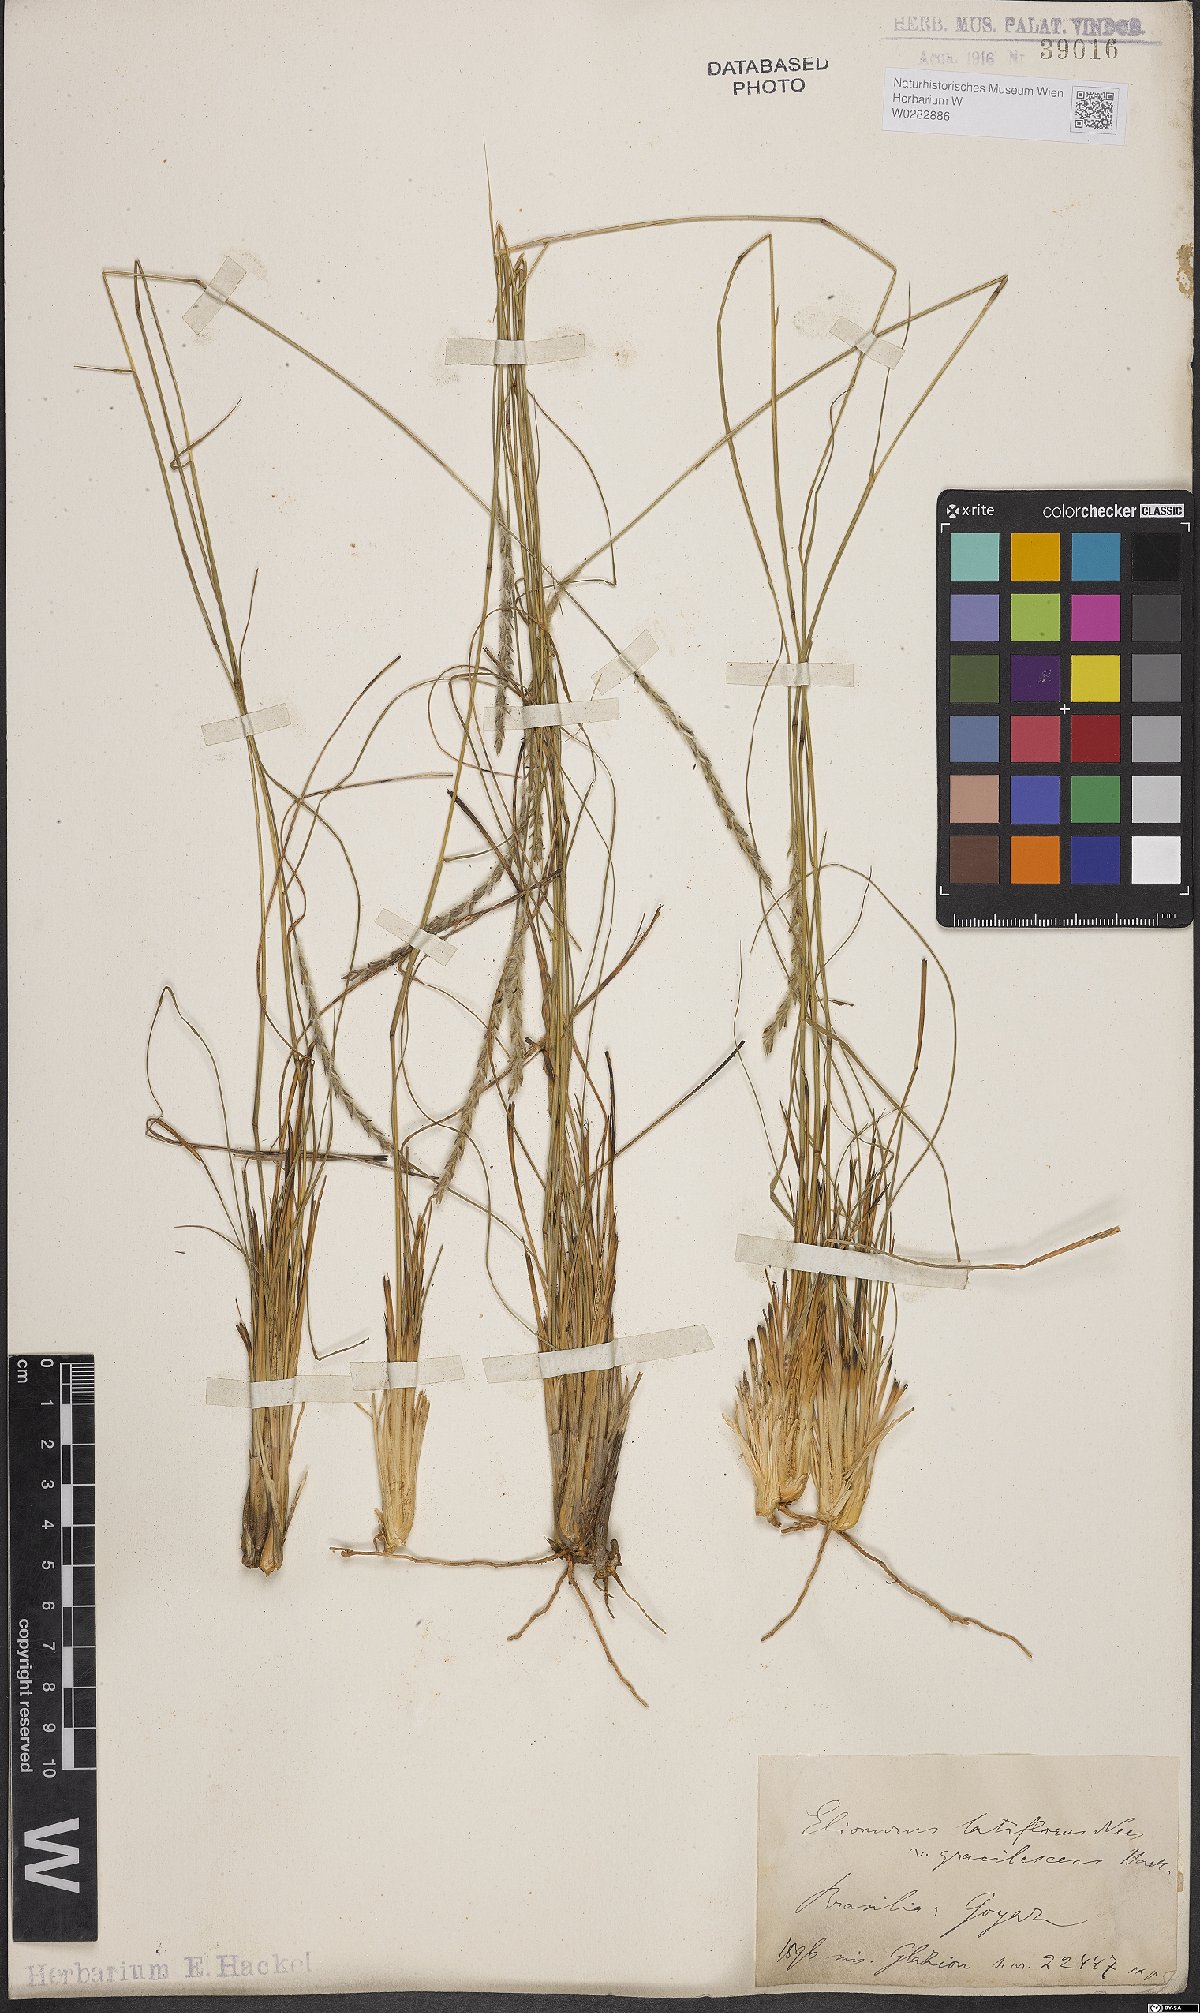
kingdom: Plantae
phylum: Tracheophyta
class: Liliopsida
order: Poales
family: Poaceae
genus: Elionurus
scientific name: Elionurus muticus
